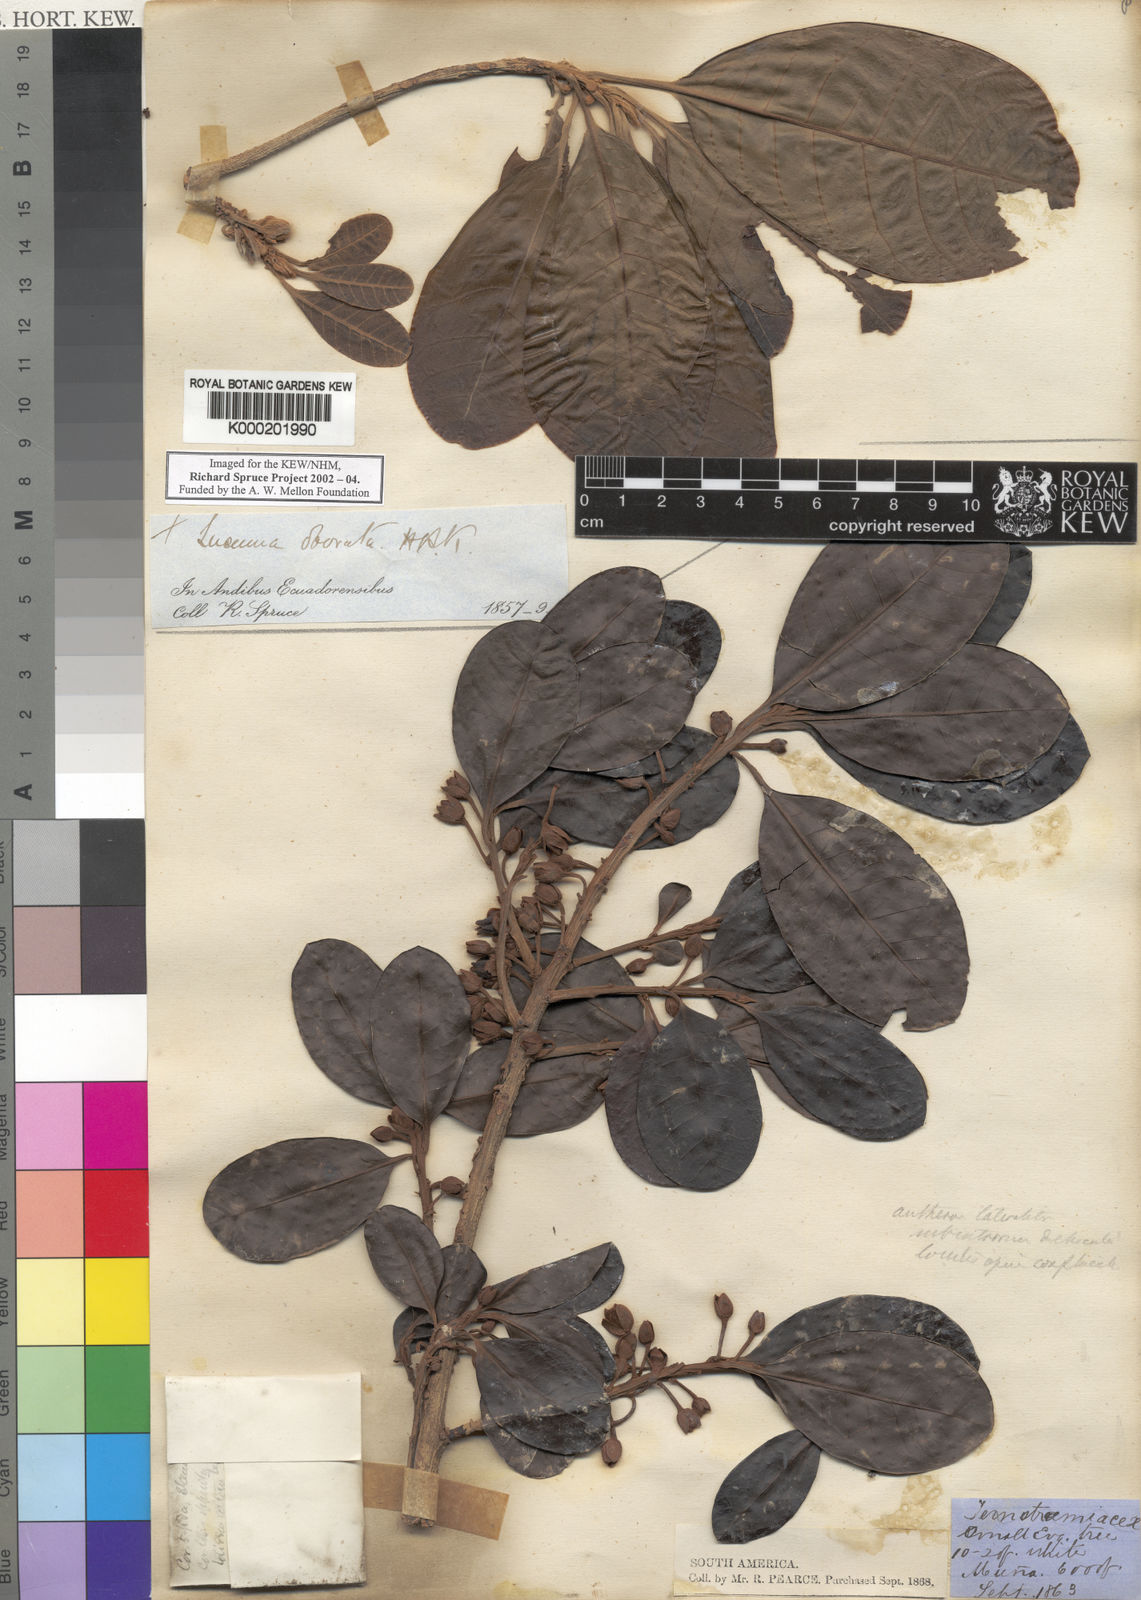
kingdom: Plantae
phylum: Tracheophyta
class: Magnoliopsida
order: Ericales
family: Sapotaceae
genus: Pouteria
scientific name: Pouteria lucuma
